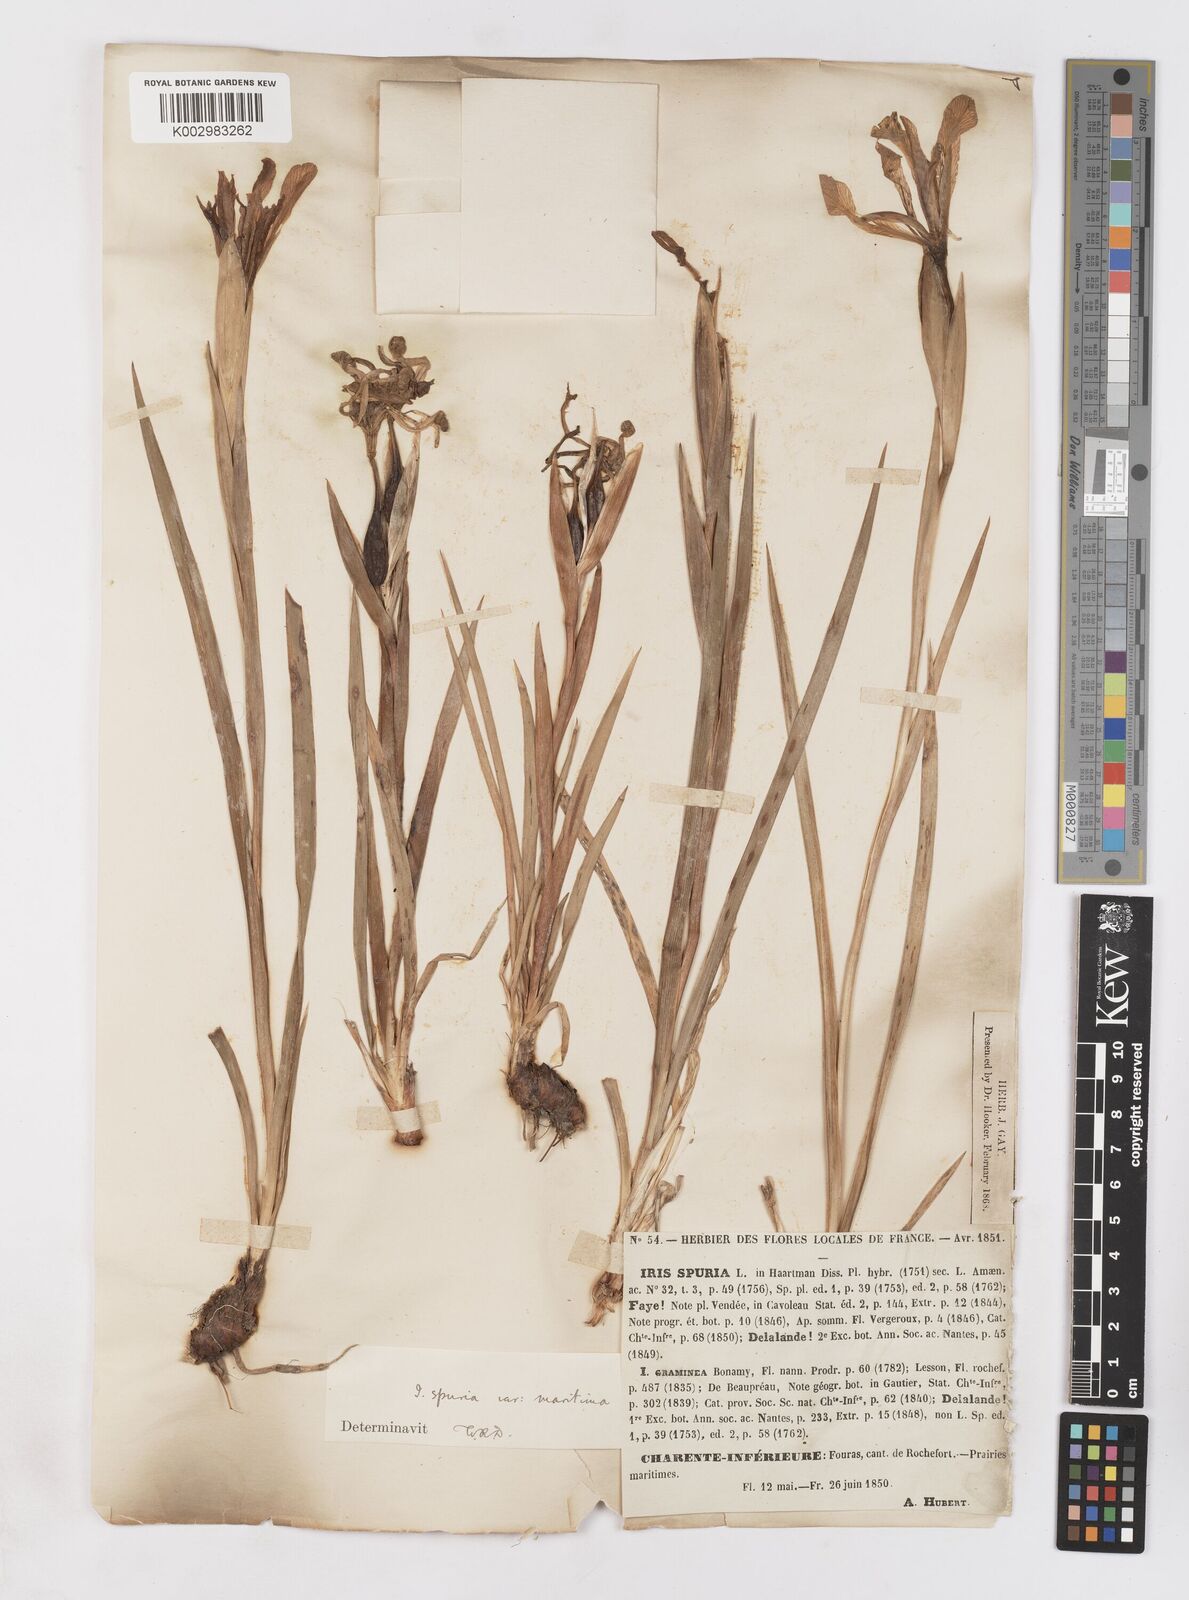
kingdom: Plantae
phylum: Tracheophyta
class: Liliopsida
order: Asparagales
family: Iridaceae
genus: Iris
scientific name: Iris spuria
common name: Blue iris
